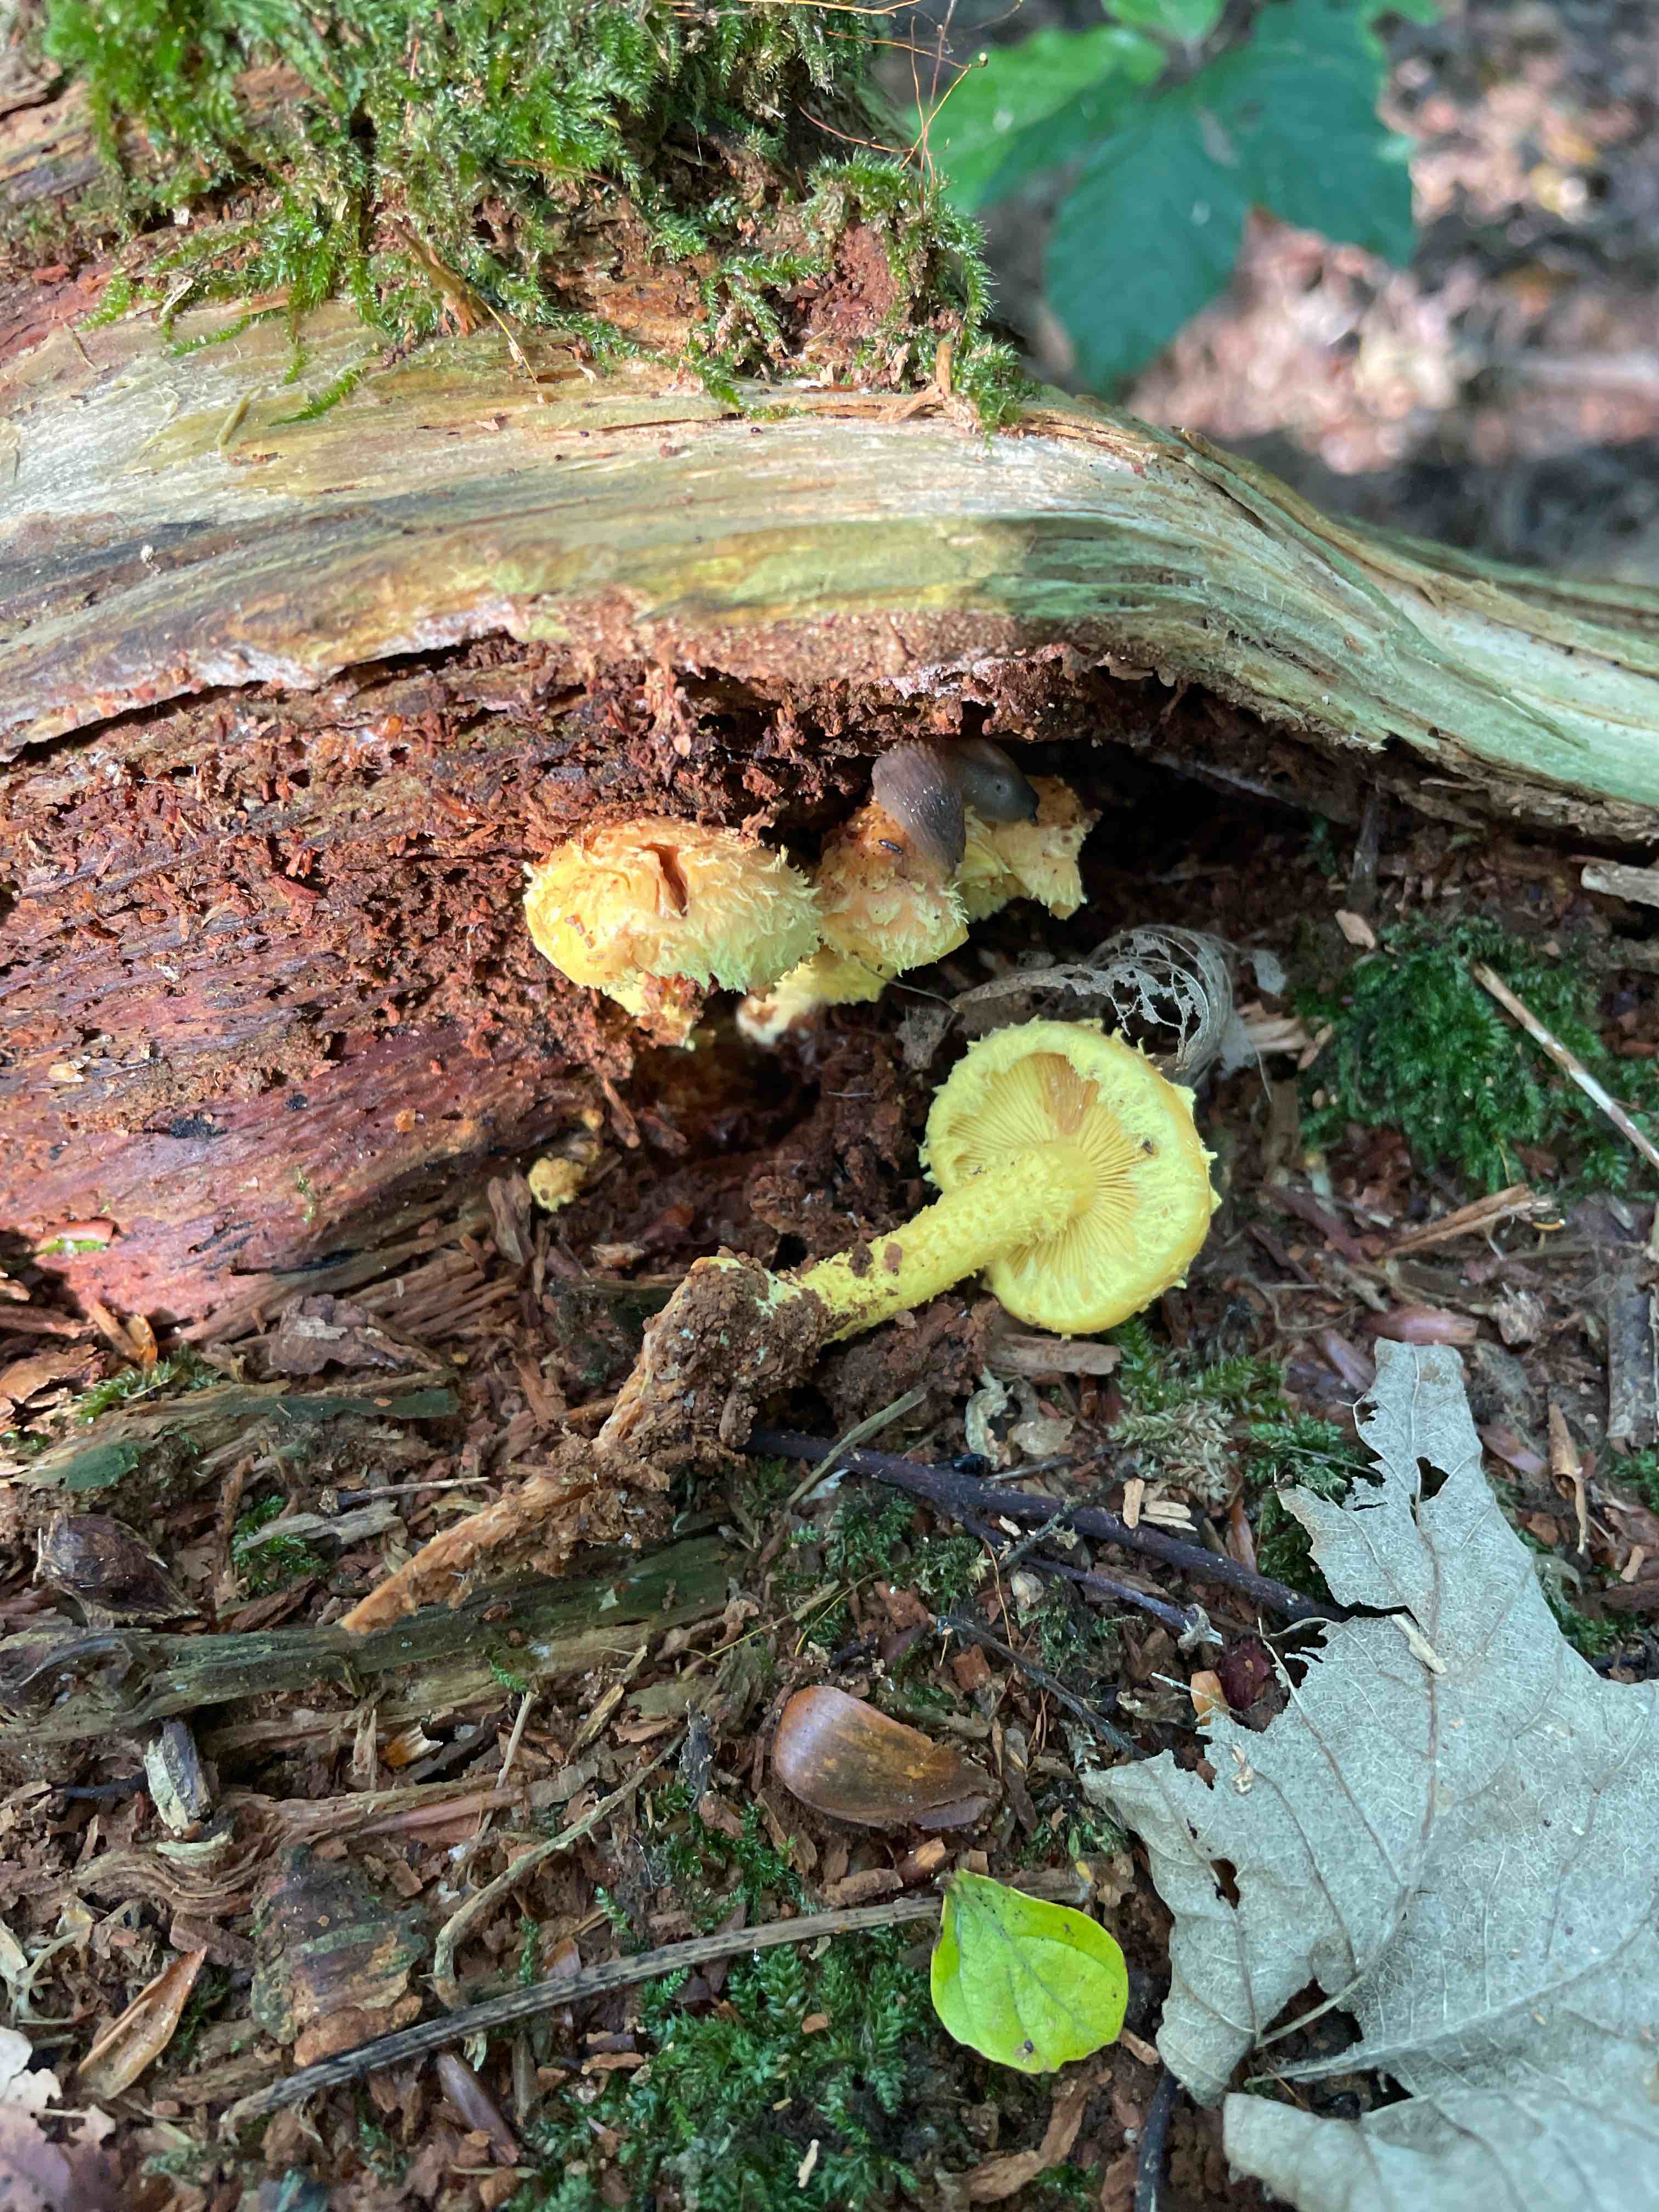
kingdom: Fungi
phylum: Basidiomycota
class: Agaricomycetes
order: Agaricales
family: Strophariaceae
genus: Pholiota
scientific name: Pholiota flammans
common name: flamme-skælhat
